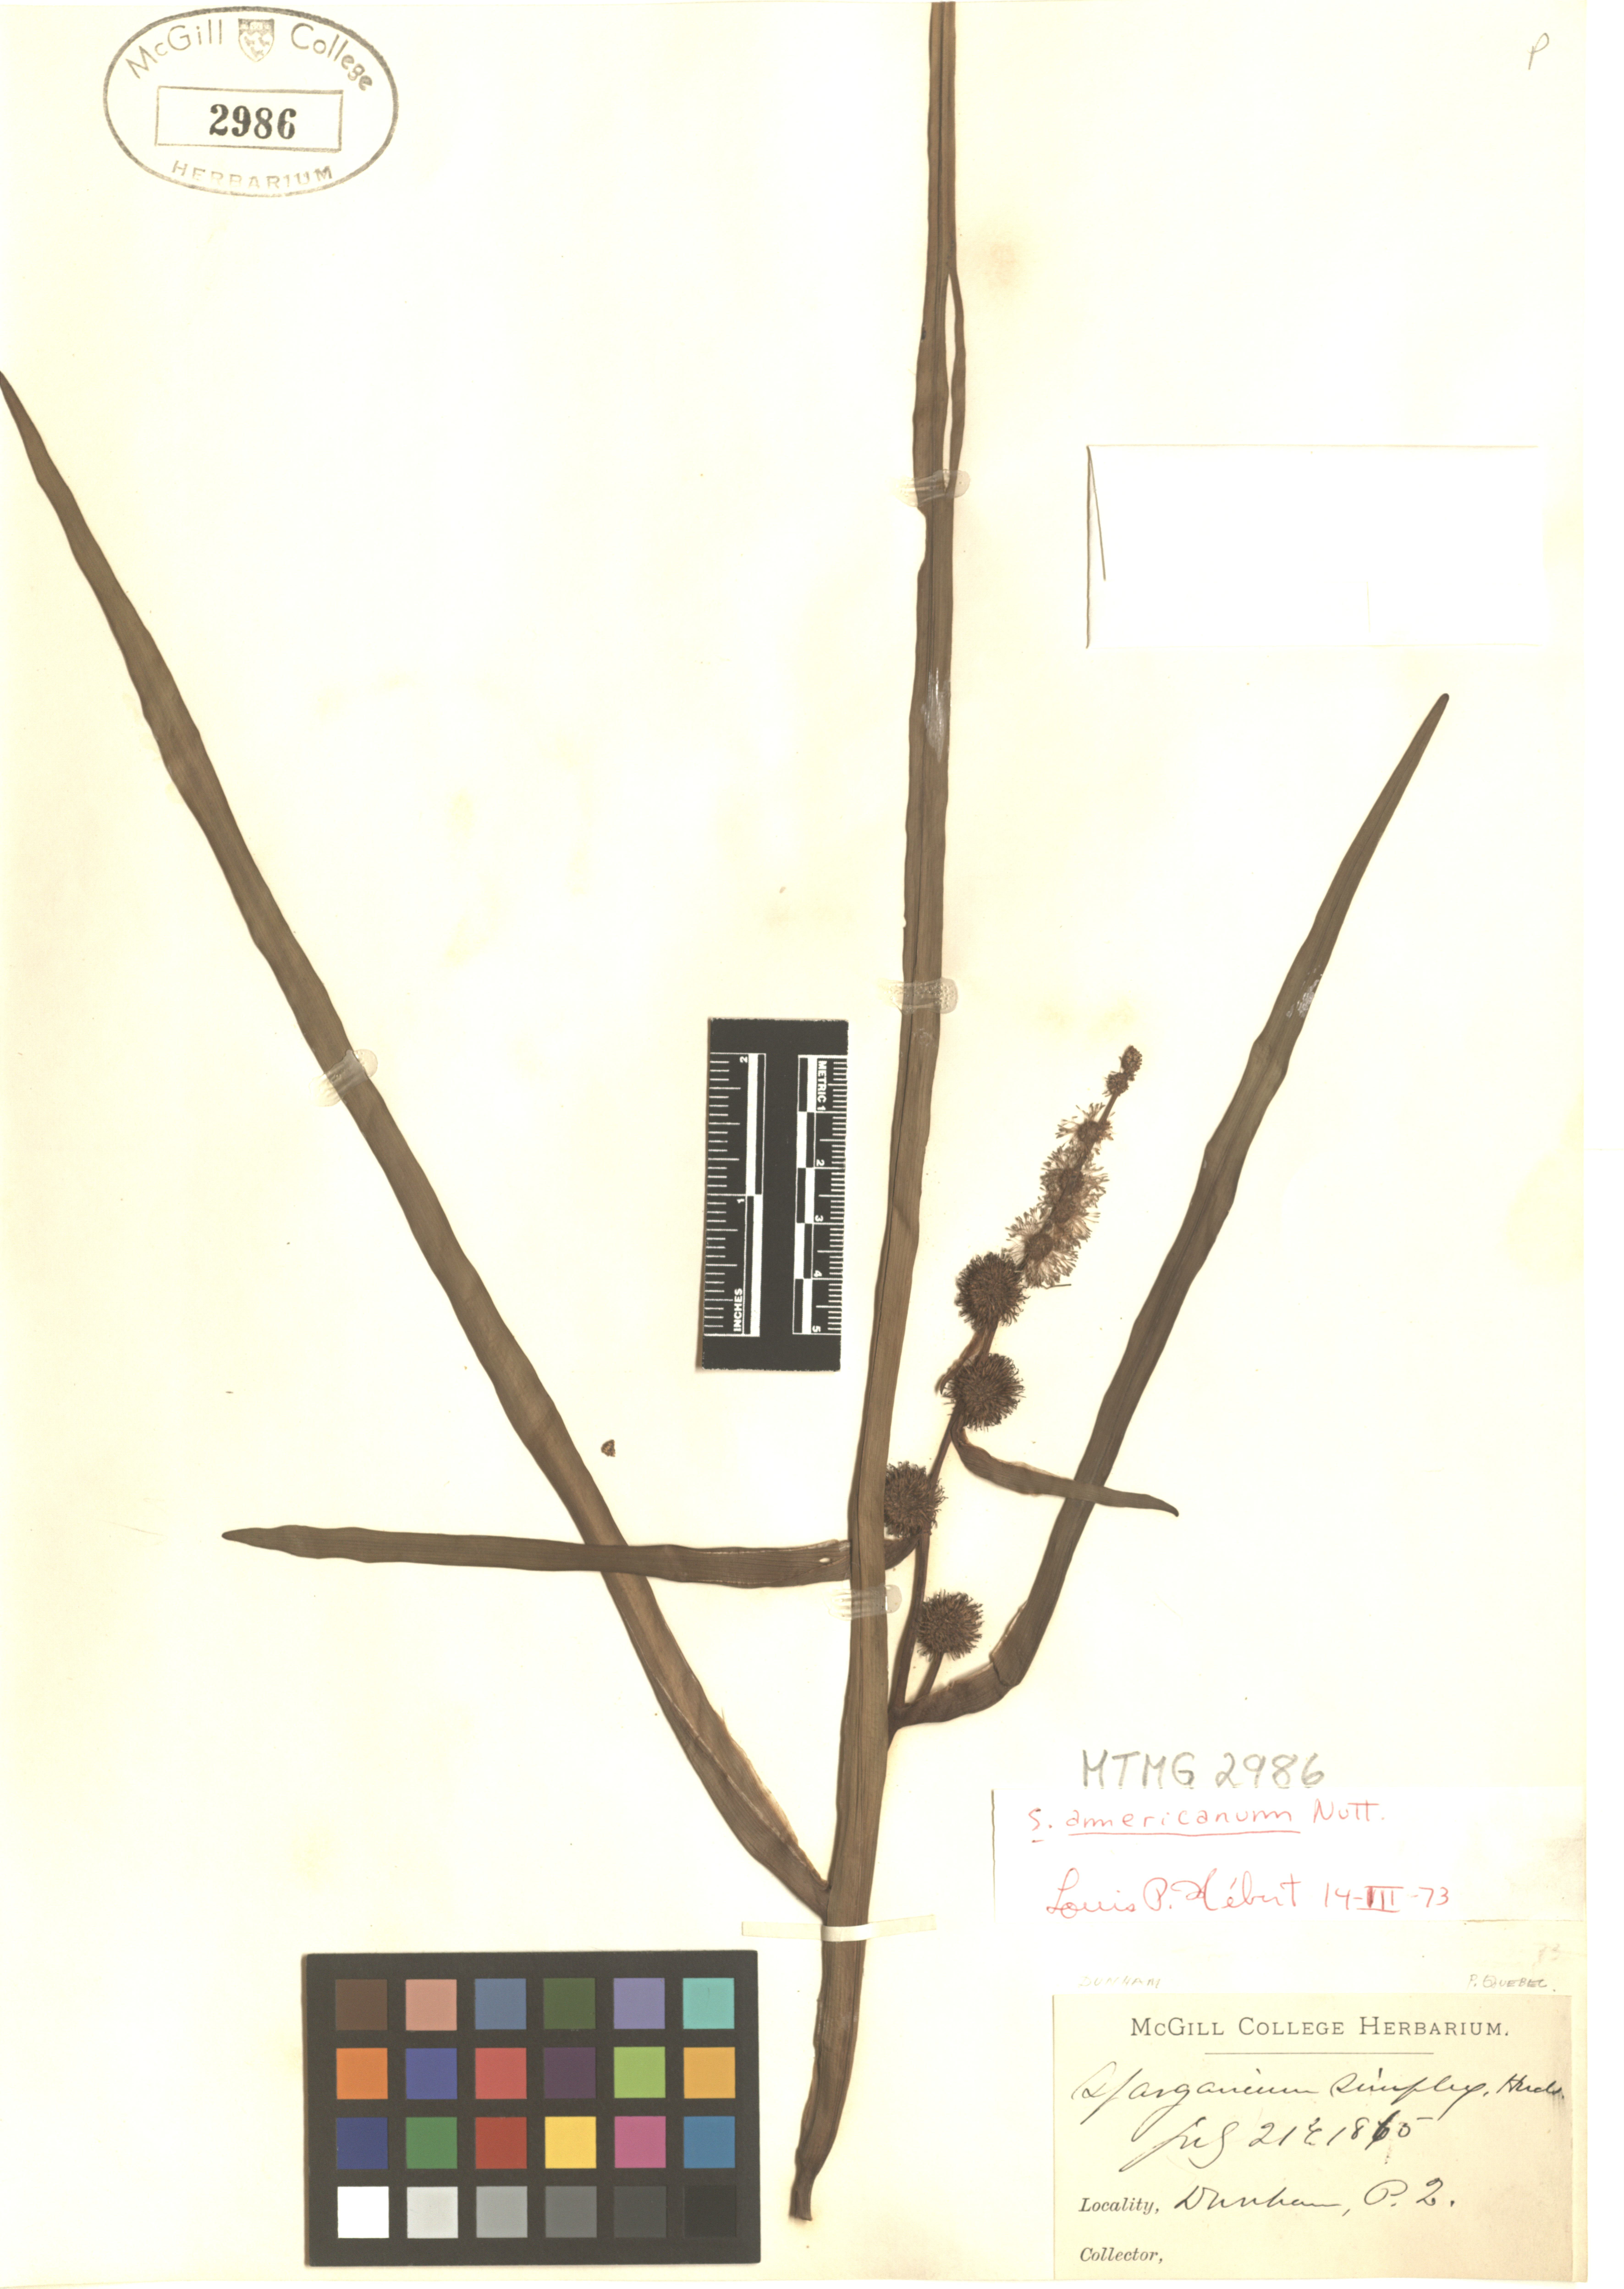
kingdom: Plantae
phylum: Tracheophyta
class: Liliopsida
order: Poales
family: Typhaceae
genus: Sparganium
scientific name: Sparganium americanum
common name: American burreed
